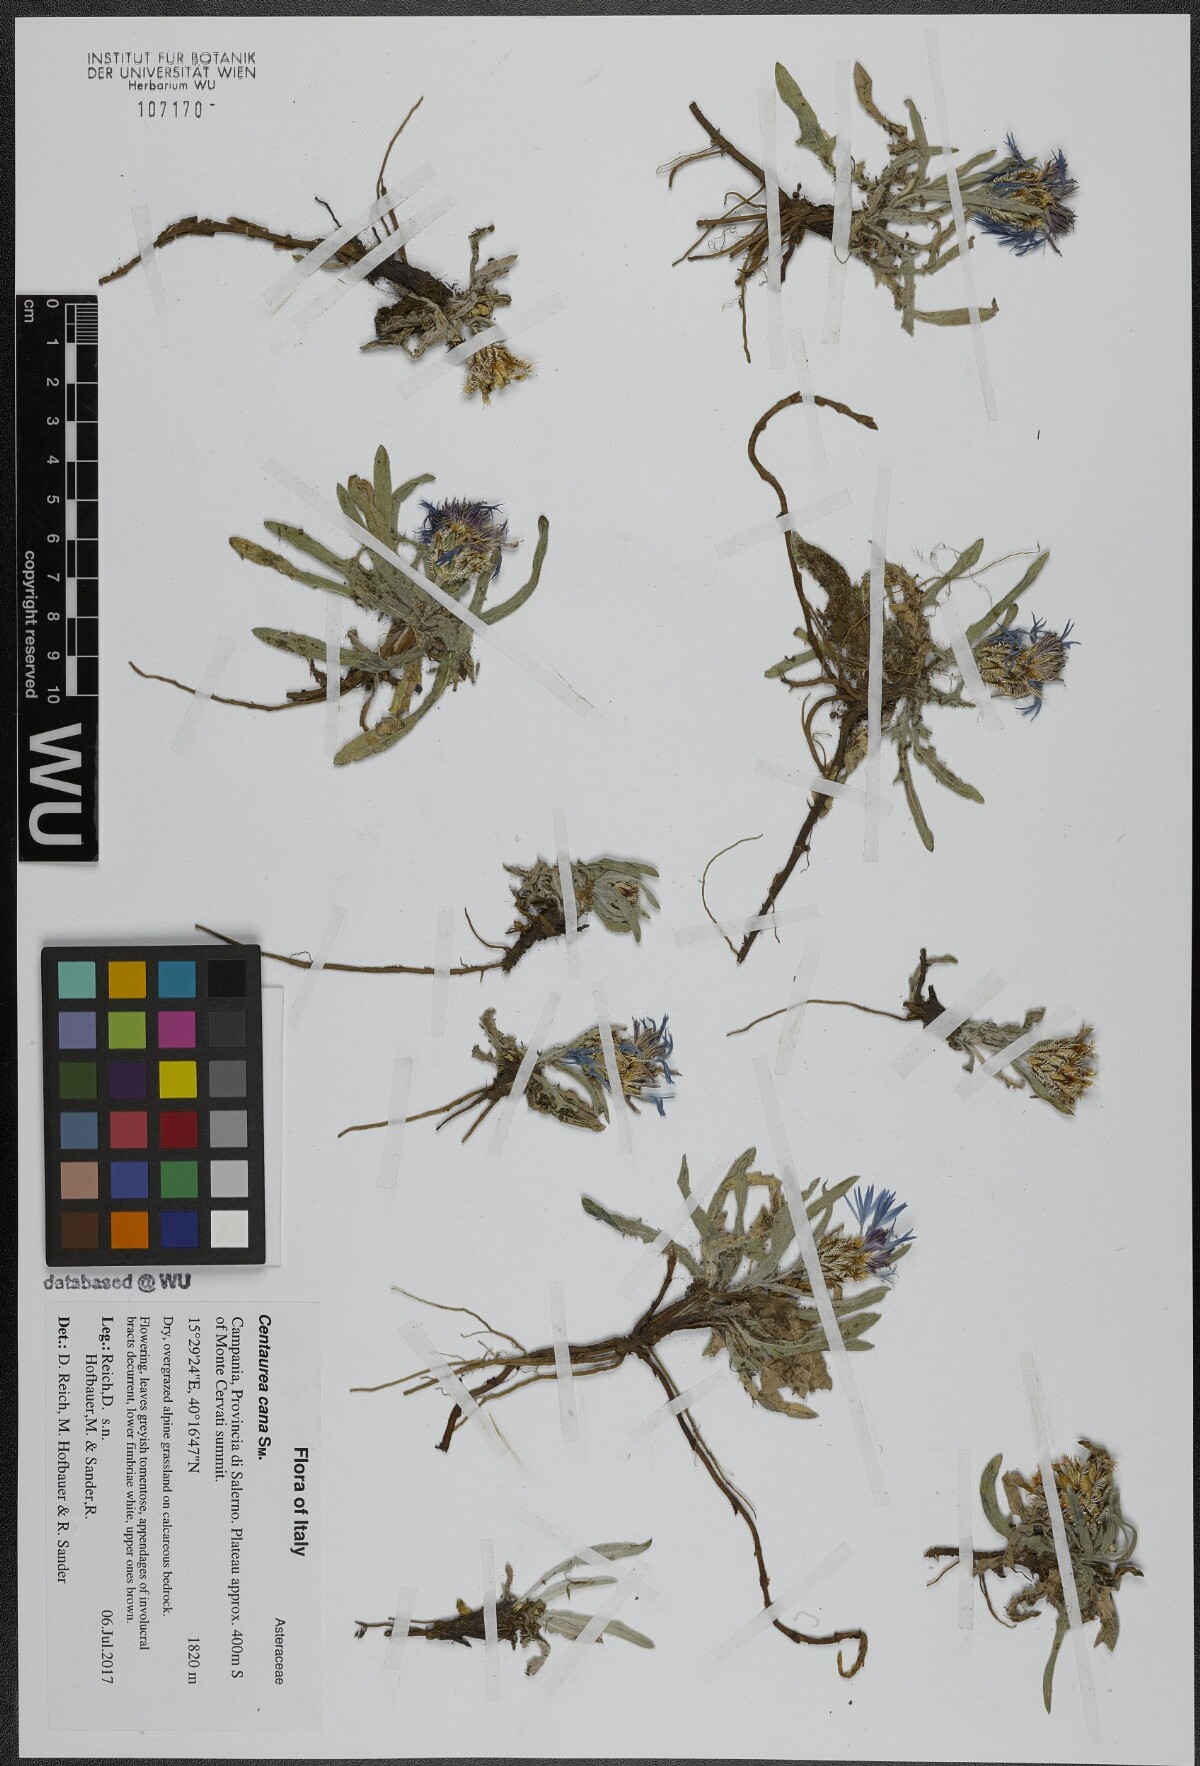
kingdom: Plantae
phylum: Tracheophyta
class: Magnoliopsida
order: Asterales
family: Asteraceae
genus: Centaurea
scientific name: Centaurea triumfettii
